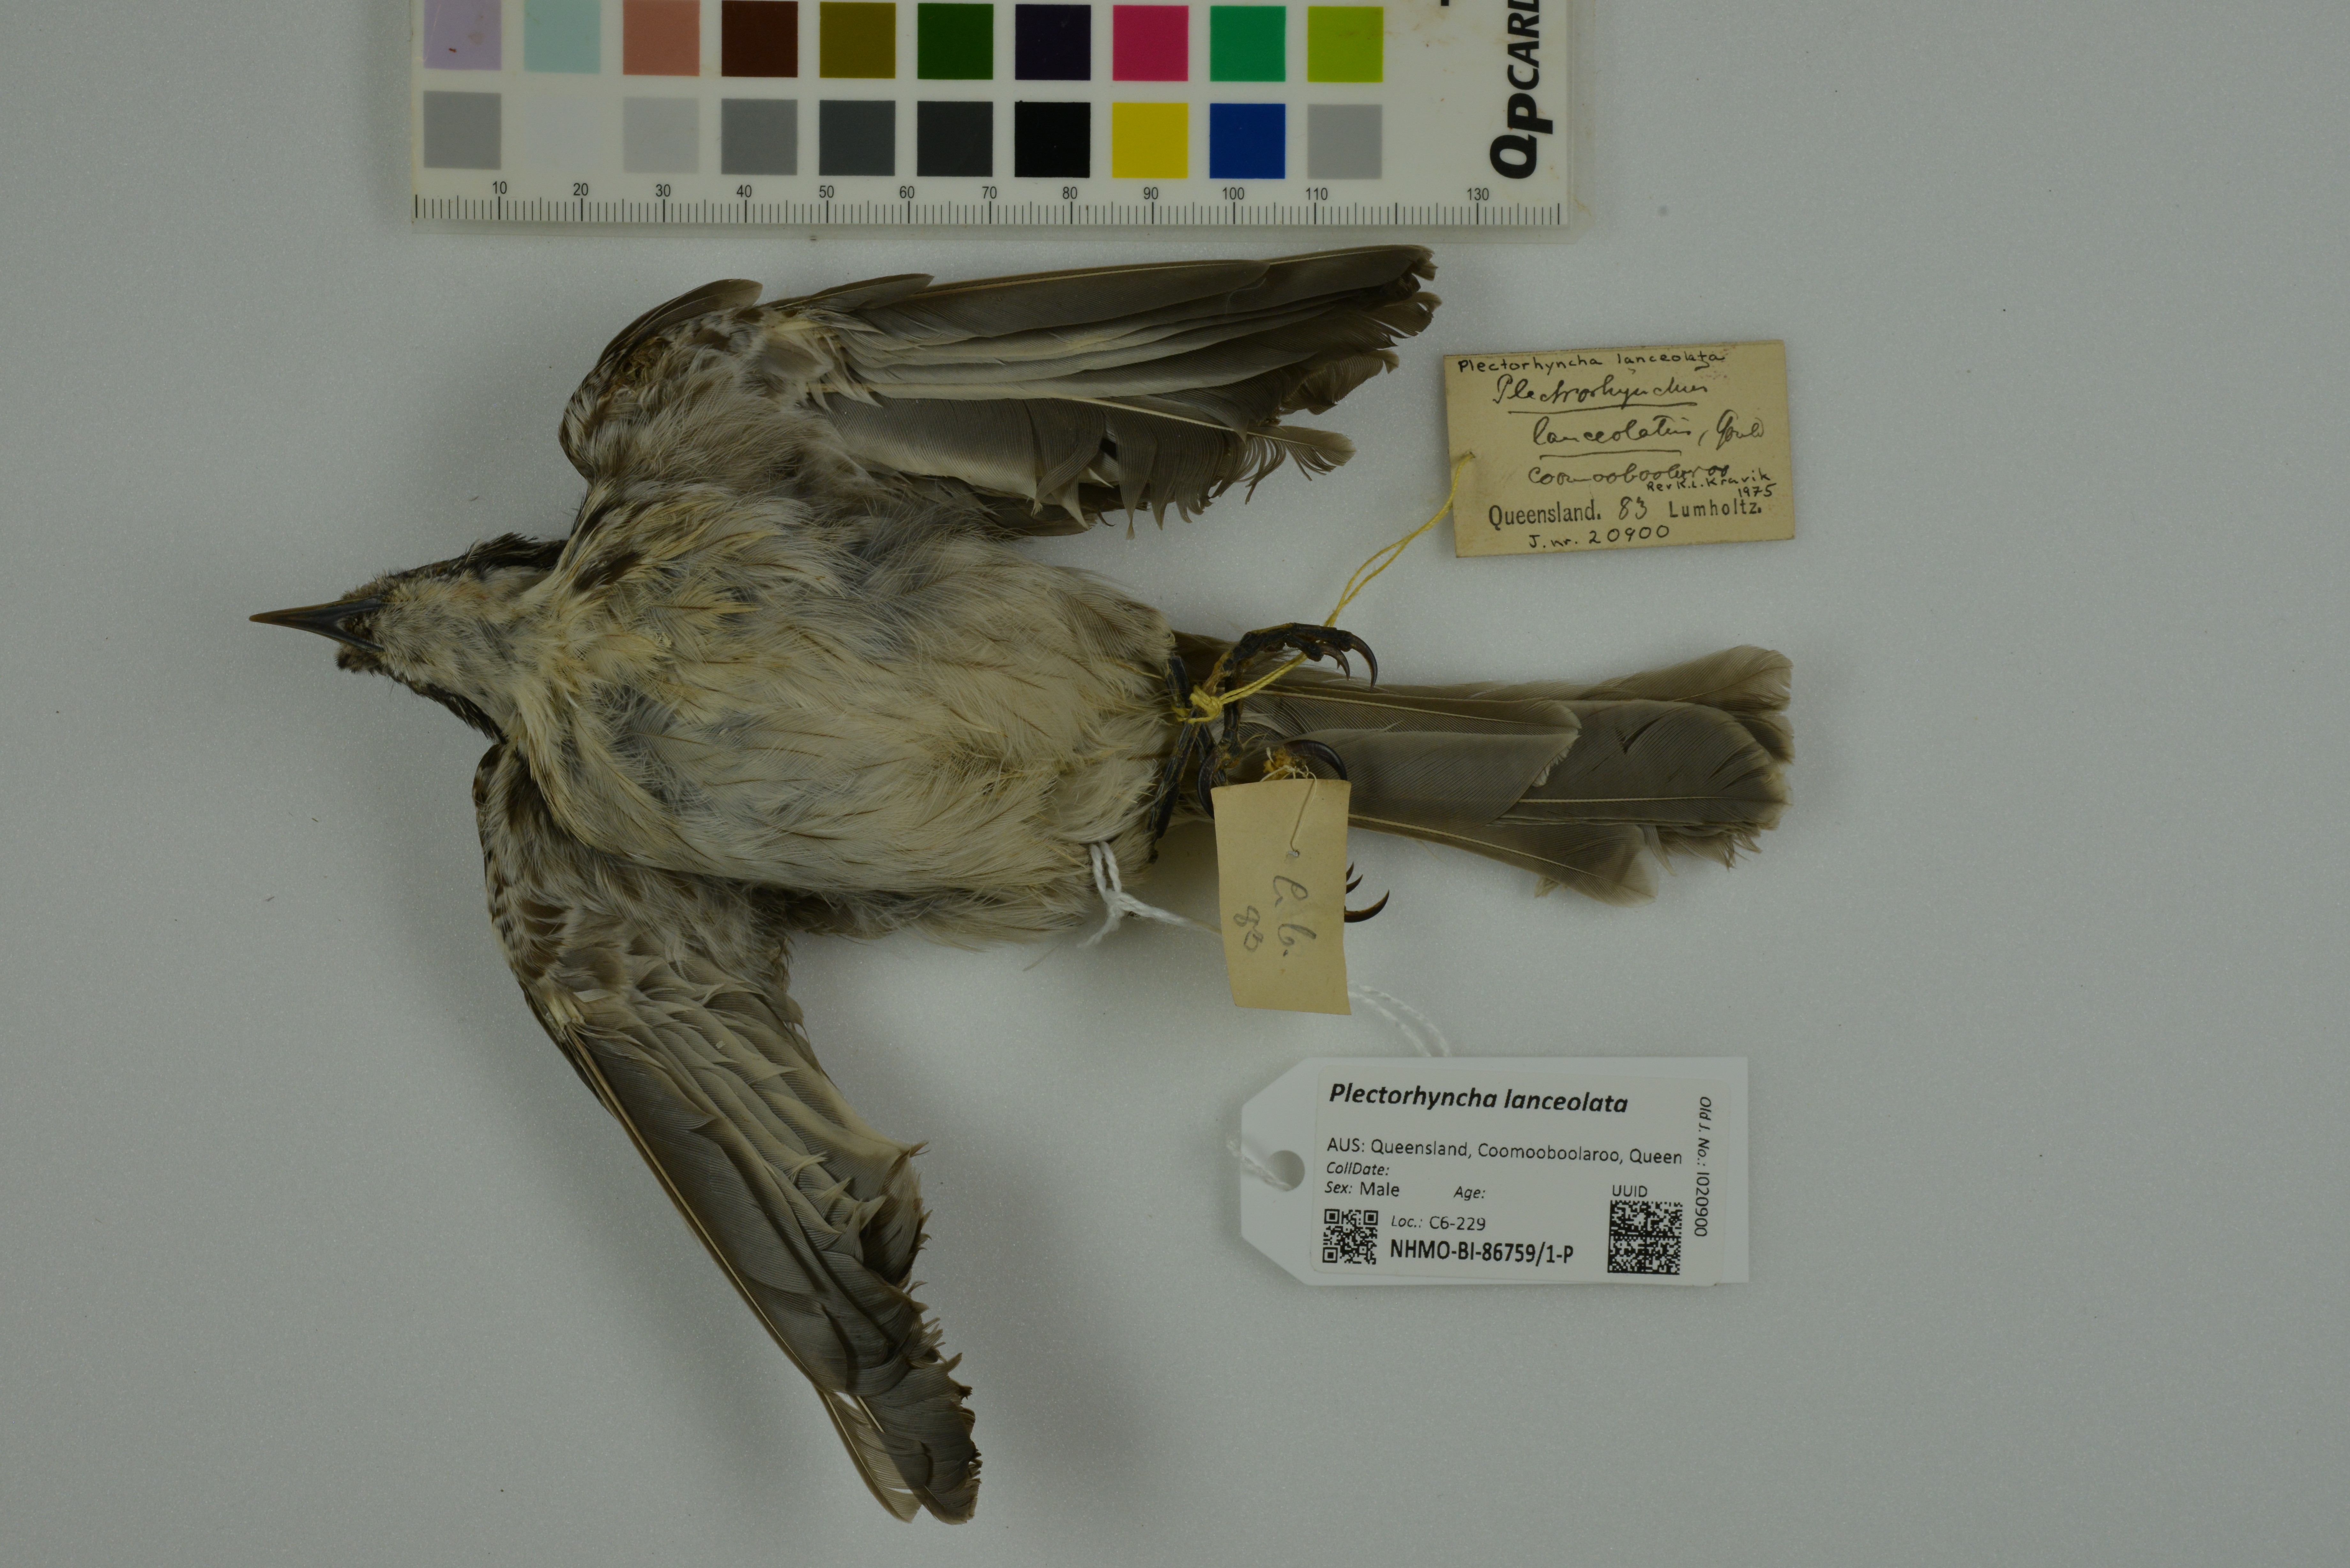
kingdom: Animalia
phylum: Chordata
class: Aves
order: Passeriformes
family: Meliphagidae
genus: Plectorhyncha
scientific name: Plectorhyncha lanceolata
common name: Striped honeyeater
